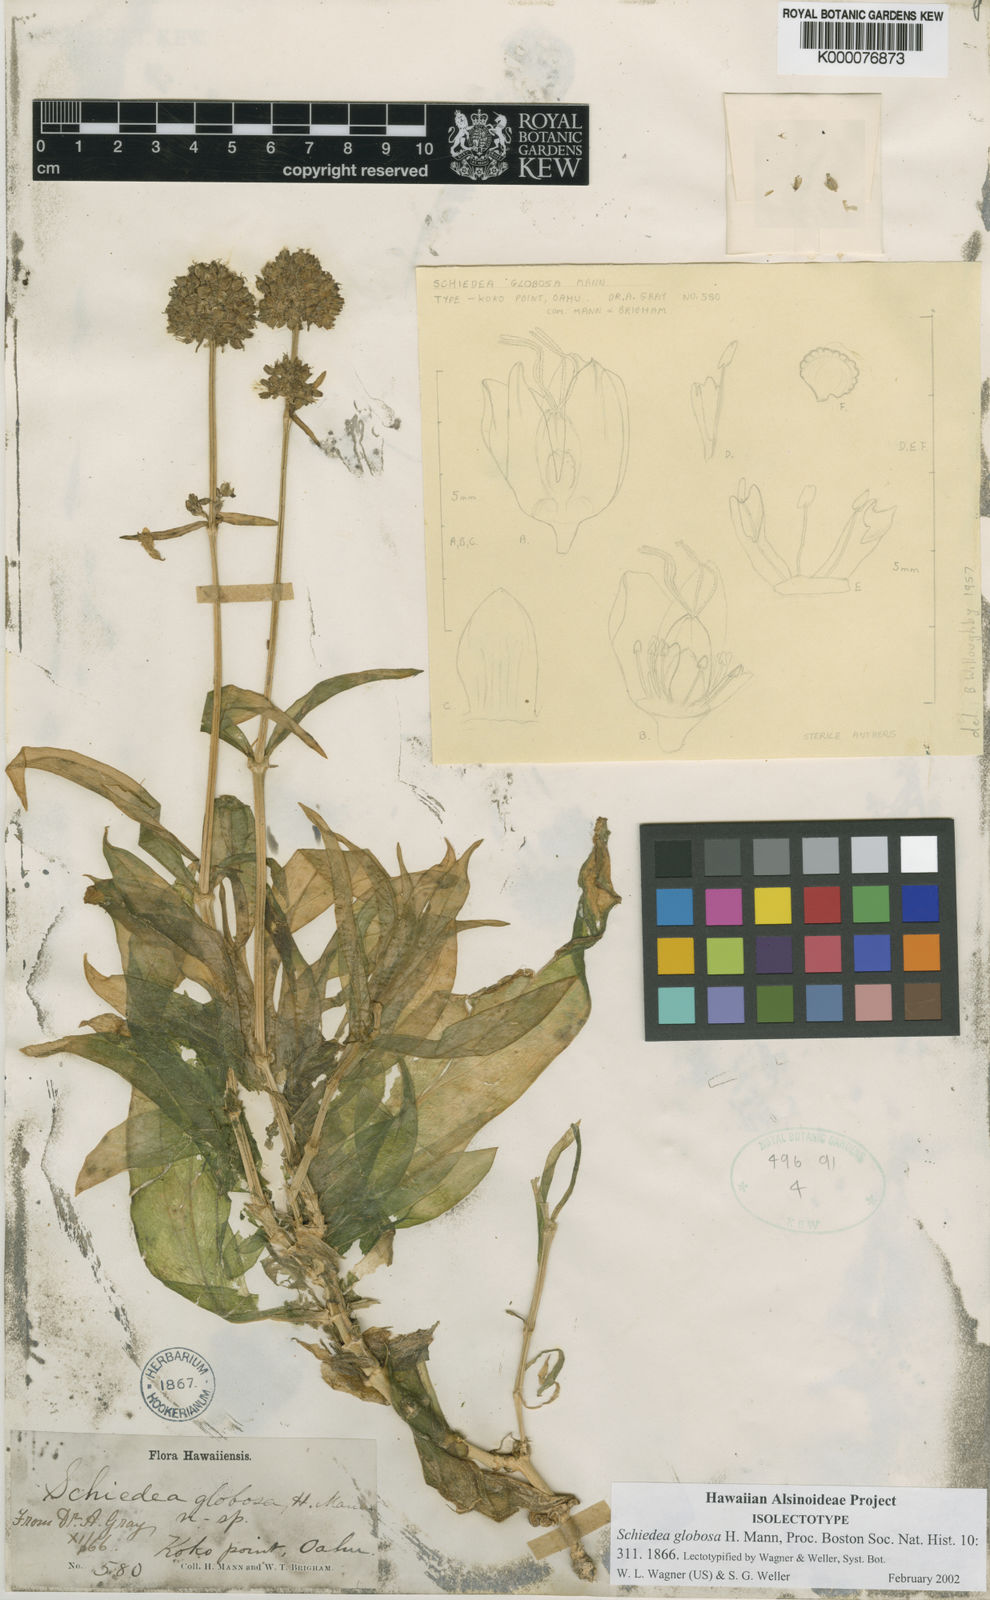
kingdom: Plantae
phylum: Tracheophyta
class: Magnoliopsida
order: Caryophyllales
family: Caryophyllaceae
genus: Schiedea
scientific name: Schiedea globosa
